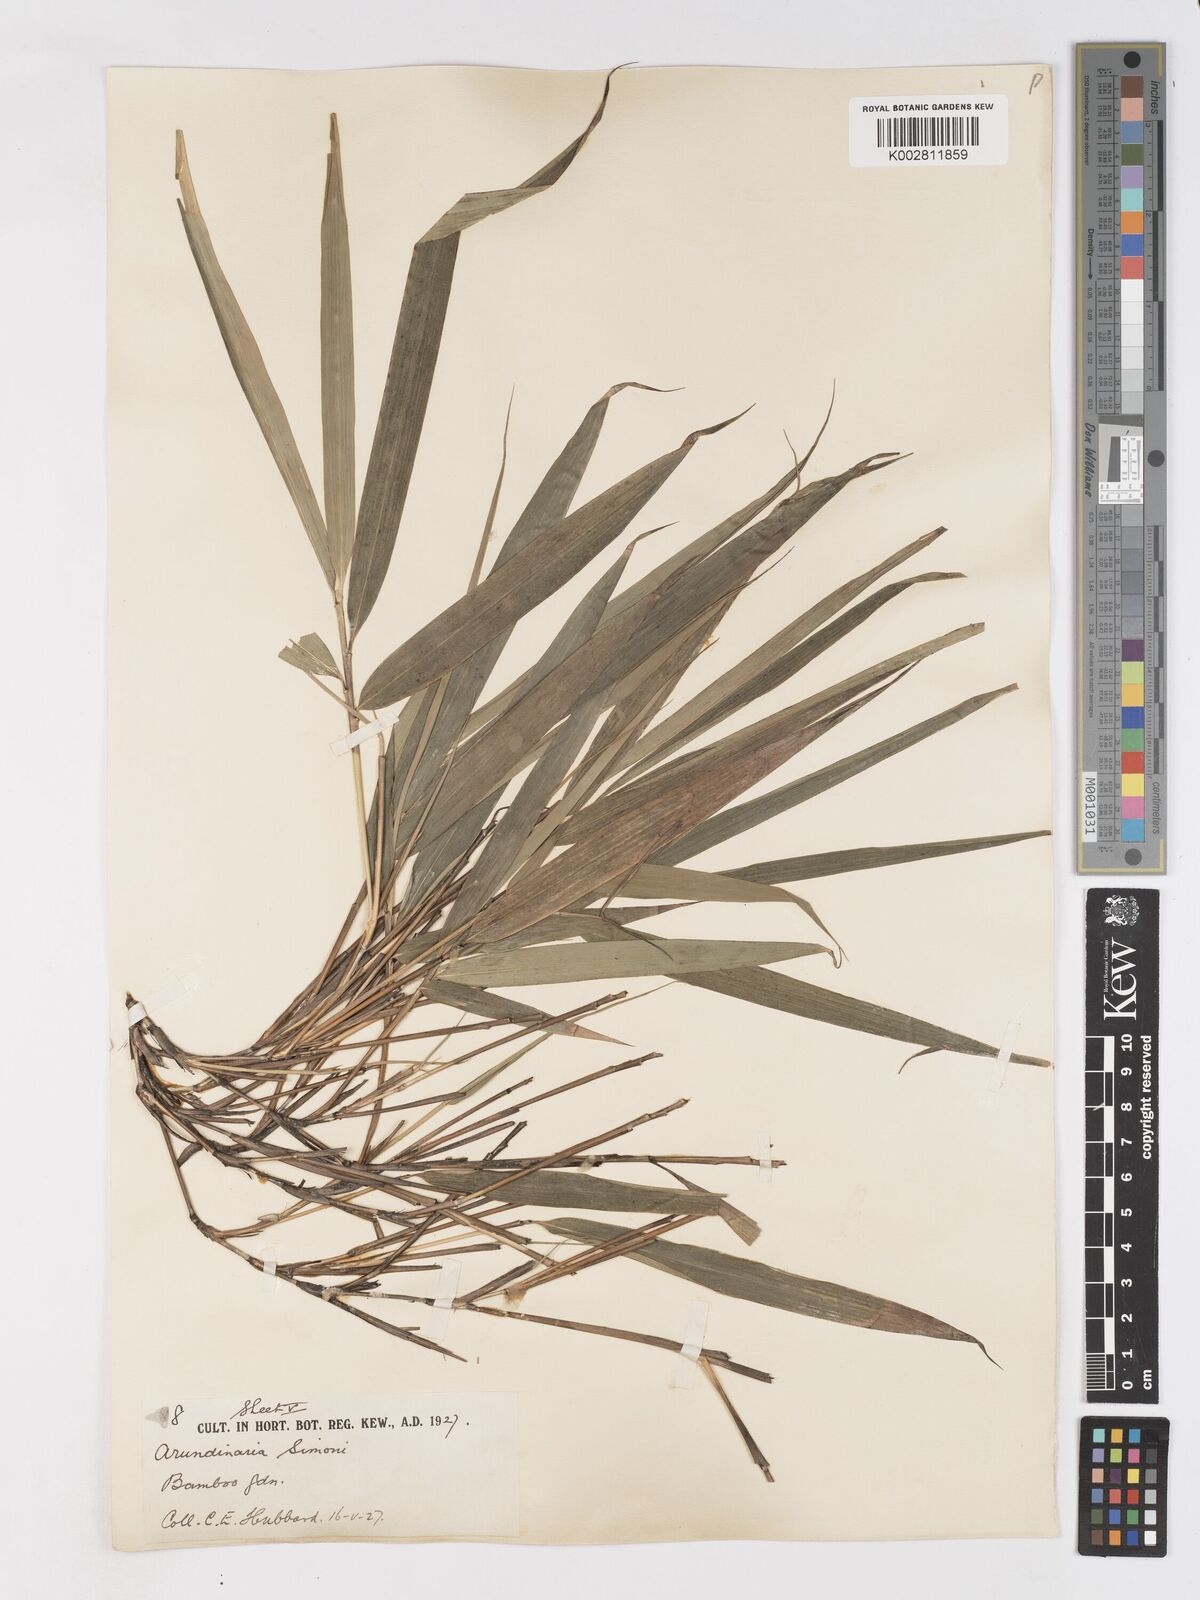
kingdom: Plantae
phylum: Tracheophyta
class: Liliopsida
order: Poales
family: Poaceae
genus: Pleioblastus
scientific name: Pleioblastus simonii
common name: Simon bamboo
